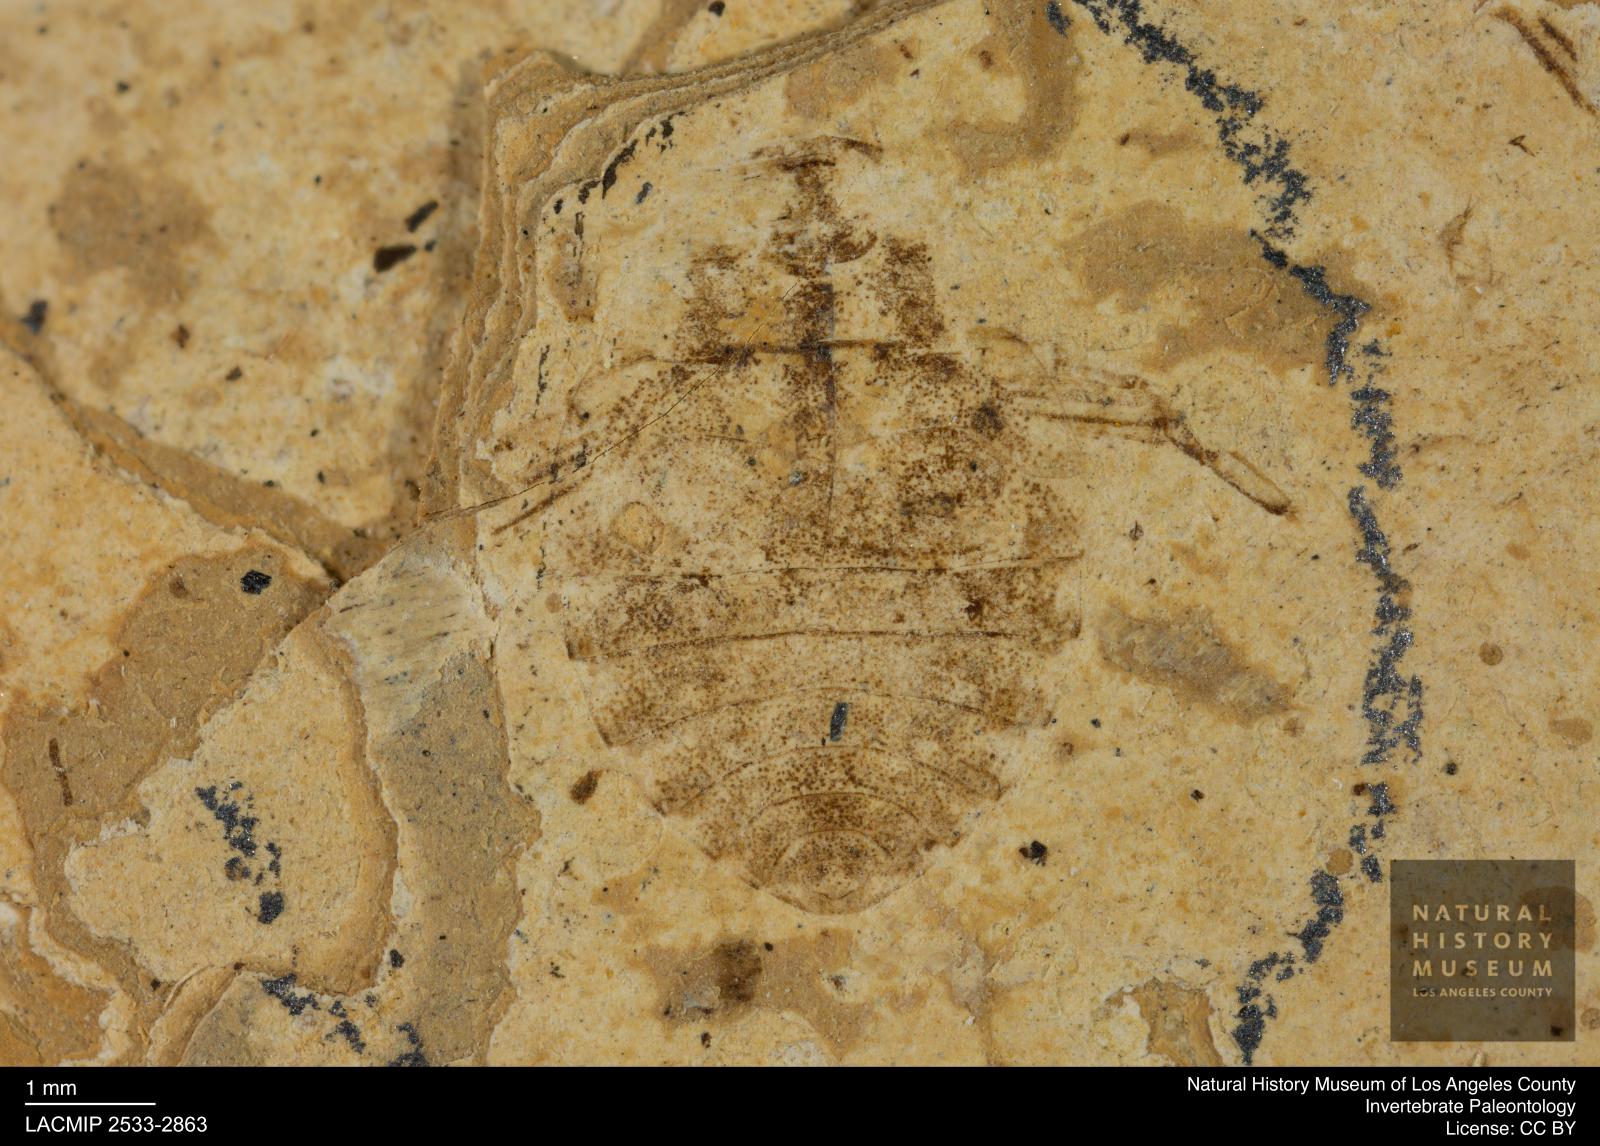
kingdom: Animalia
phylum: Arthropoda
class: Insecta
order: Hemiptera
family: Naucoridae
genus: Naucoris
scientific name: Naucoris rottensis
